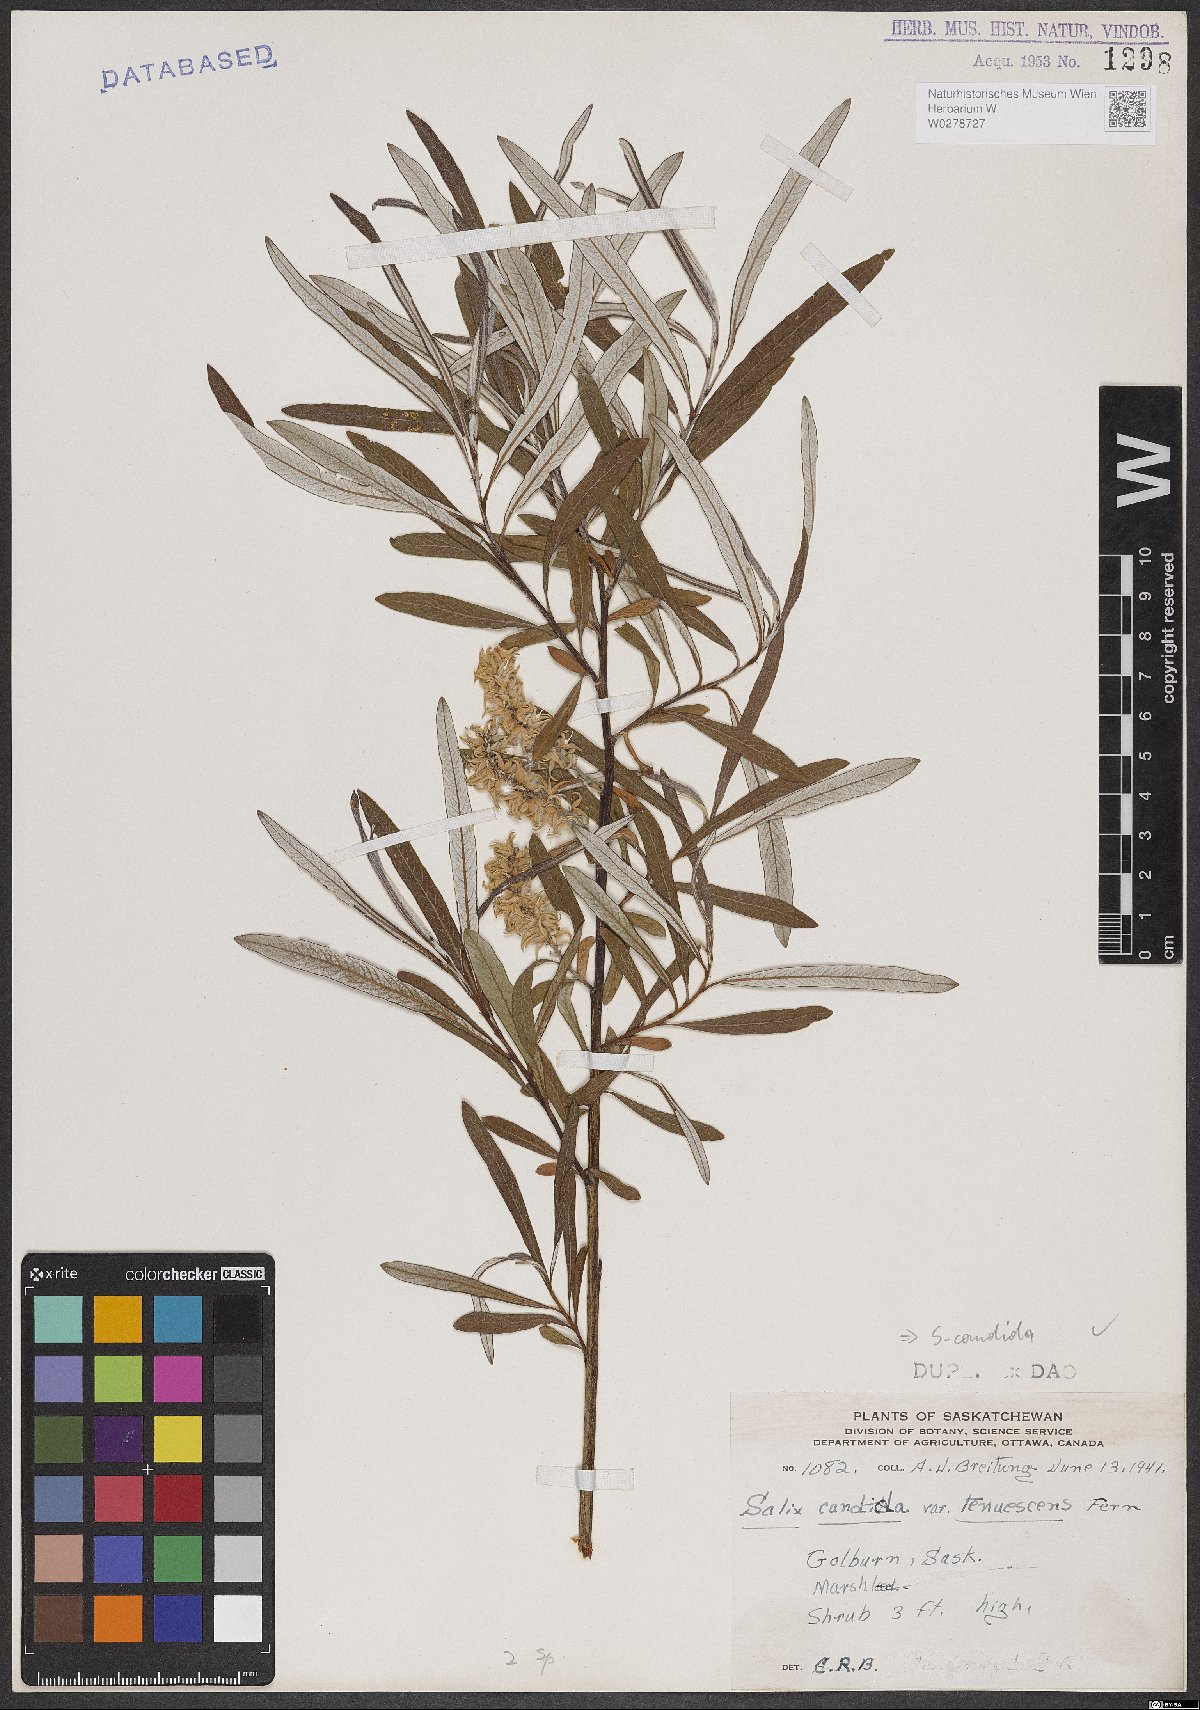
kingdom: Plantae
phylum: Tracheophyta
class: Magnoliopsida
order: Malpighiales
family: Salicaceae
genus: Salix
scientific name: Salix candida
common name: Hoary willow
